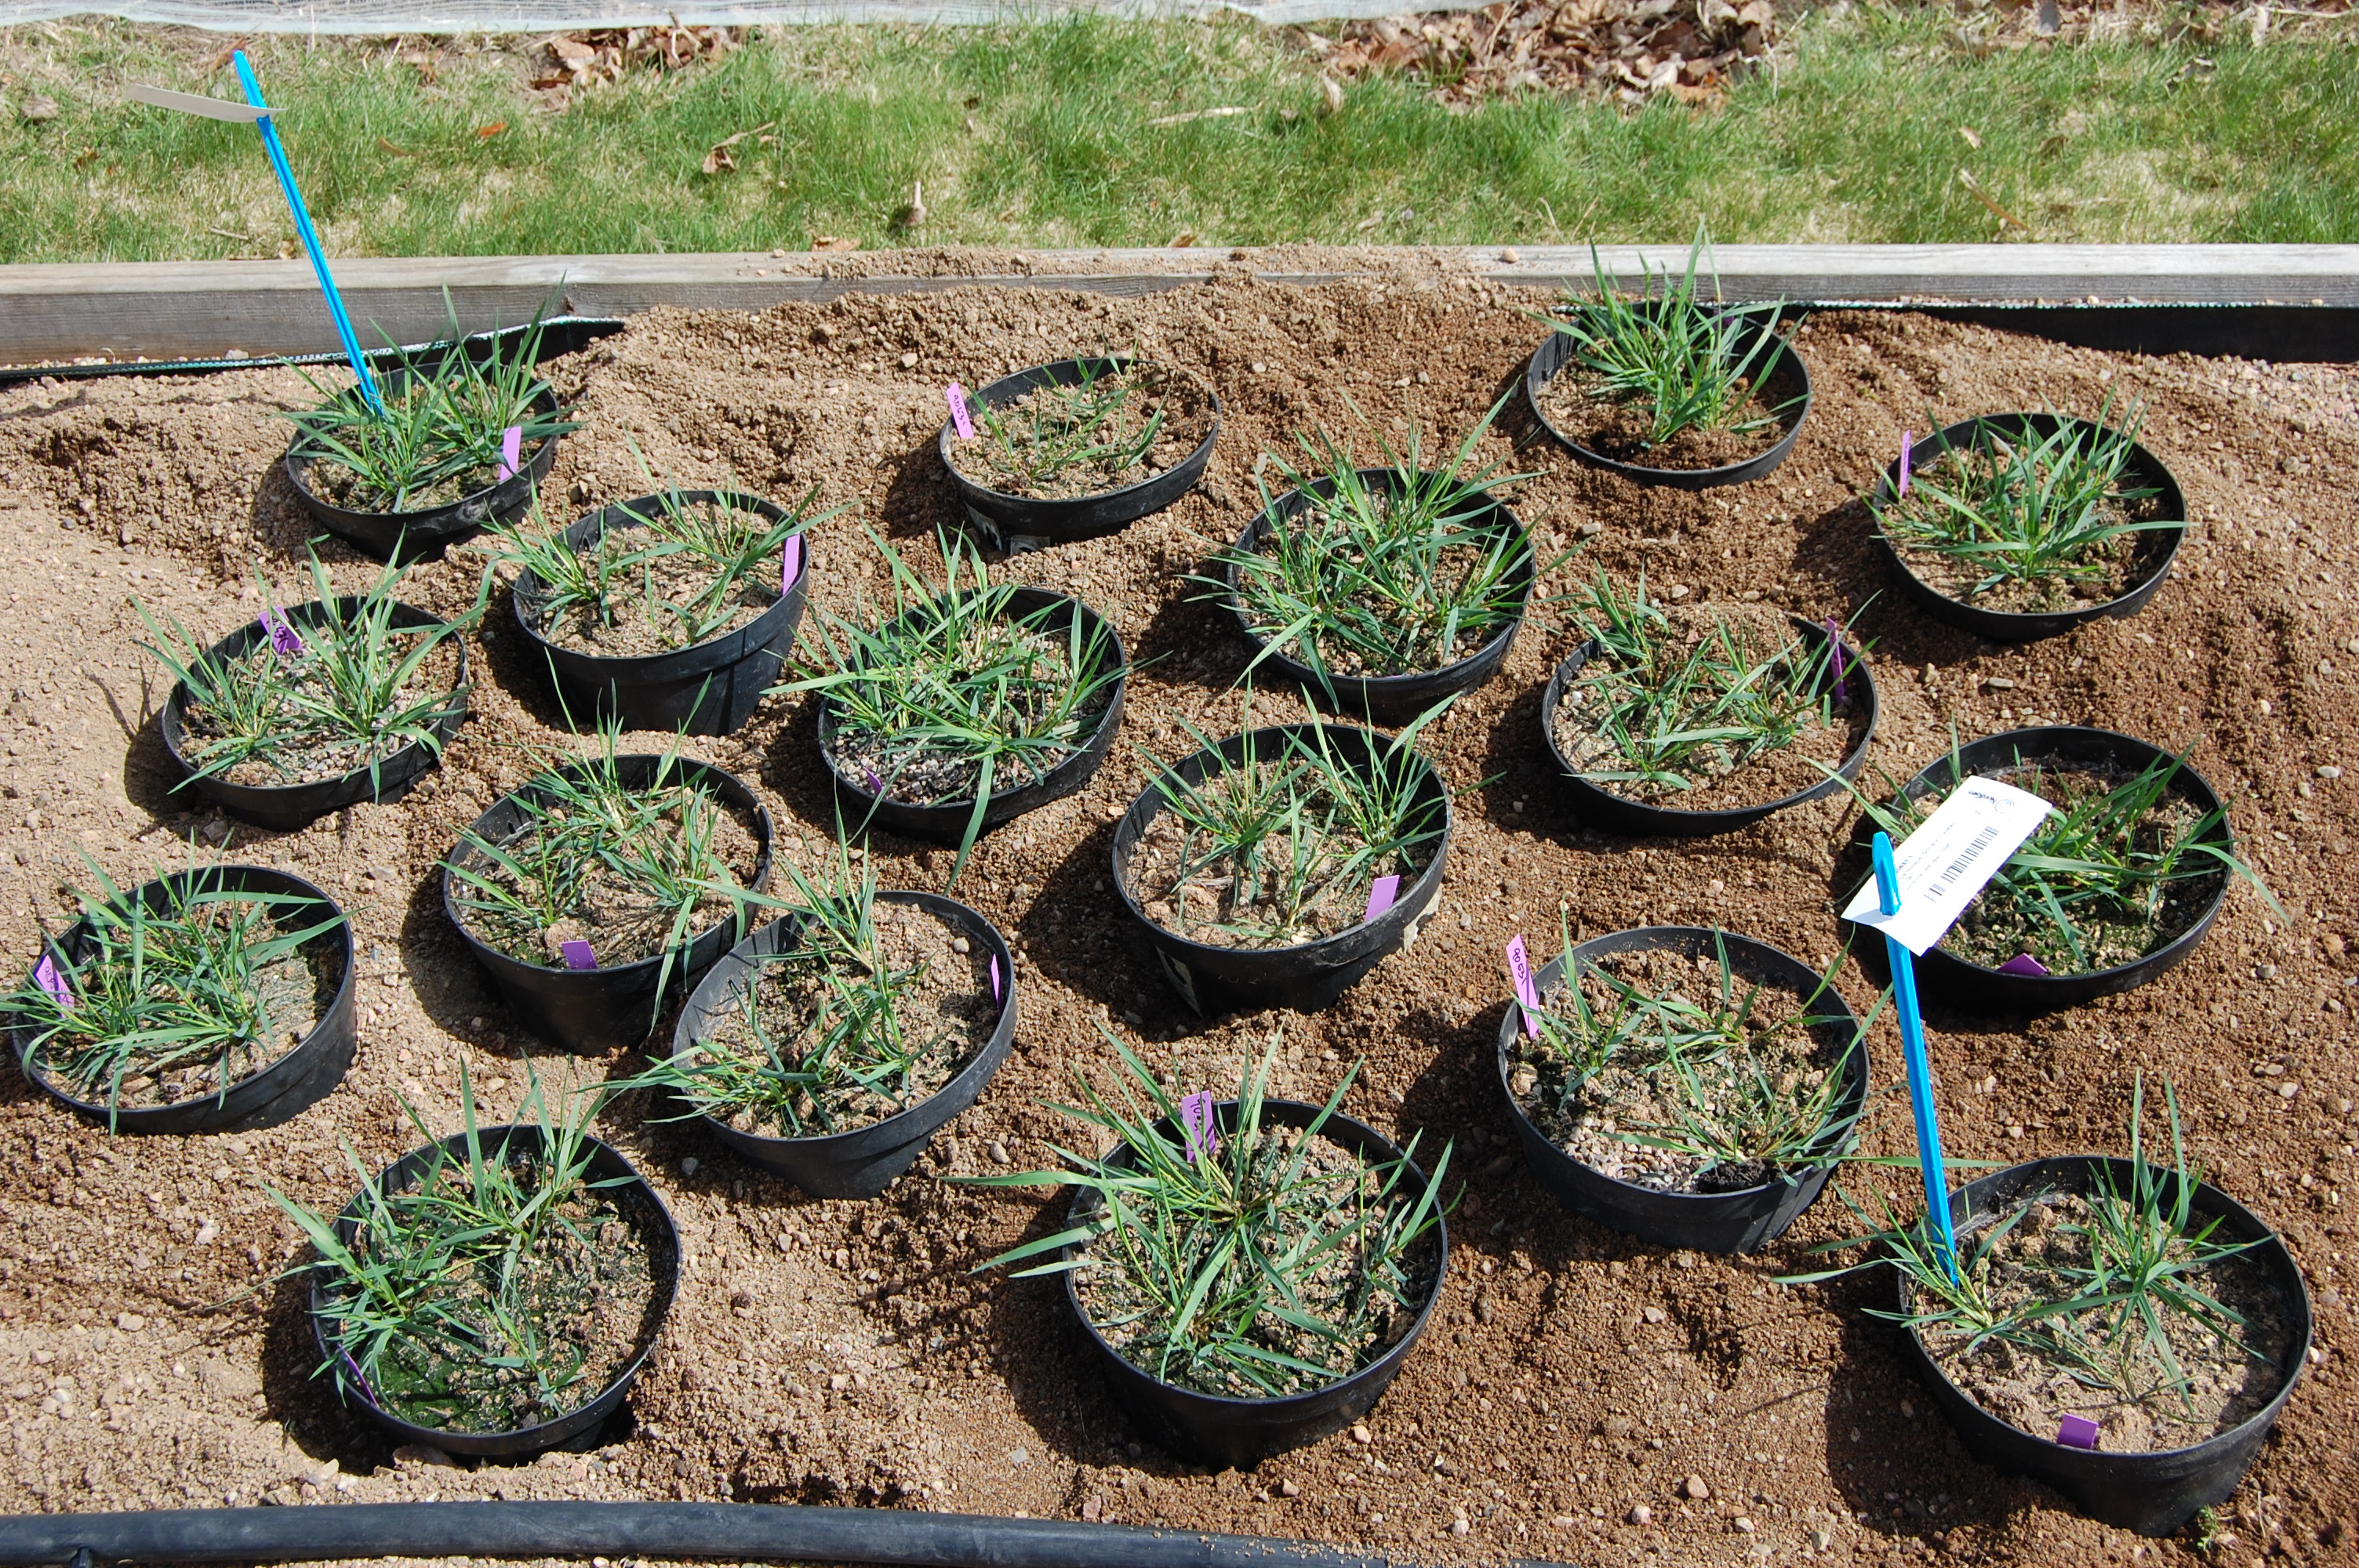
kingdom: Plantae
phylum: Tracheophyta
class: Liliopsida
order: Poales
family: Poaceae
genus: Elymus
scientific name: Elymus fibrosus
